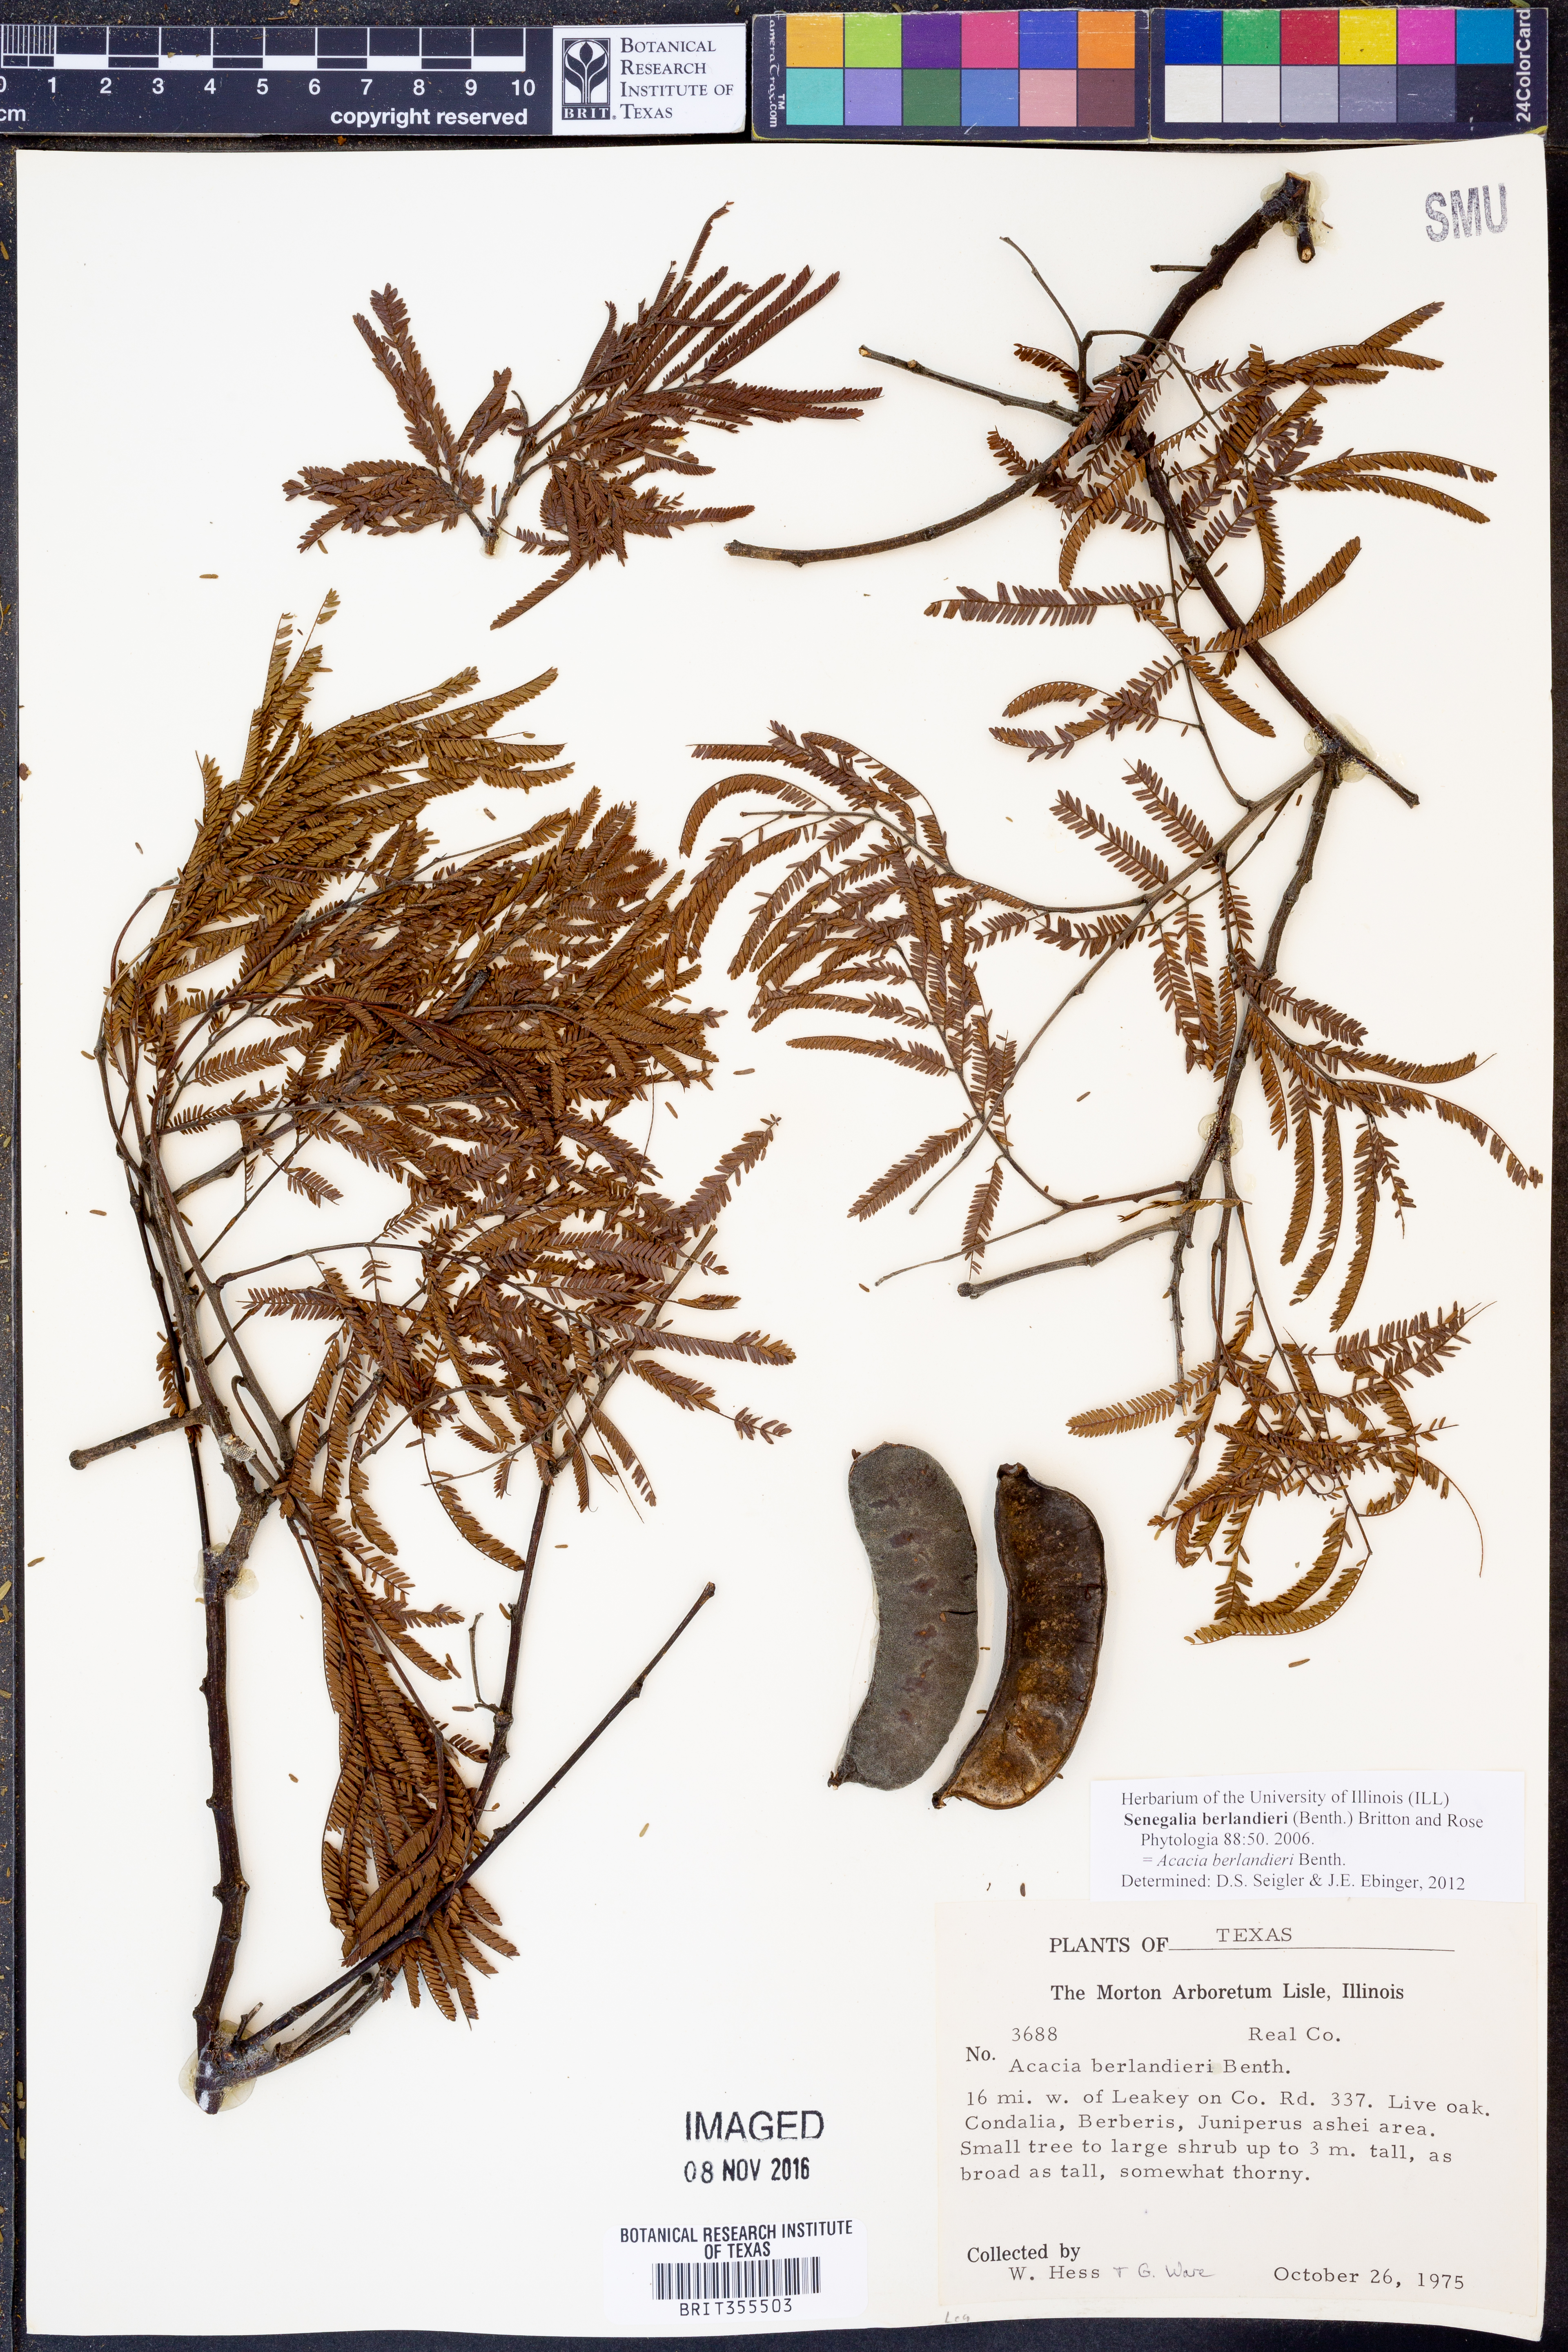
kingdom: Plantae
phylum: Tracheophyta
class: Magnoliopsida
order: Fabales
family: Fabaceae
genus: Senegalia
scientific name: Senegalia berlandieri
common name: Berlandier acacia
